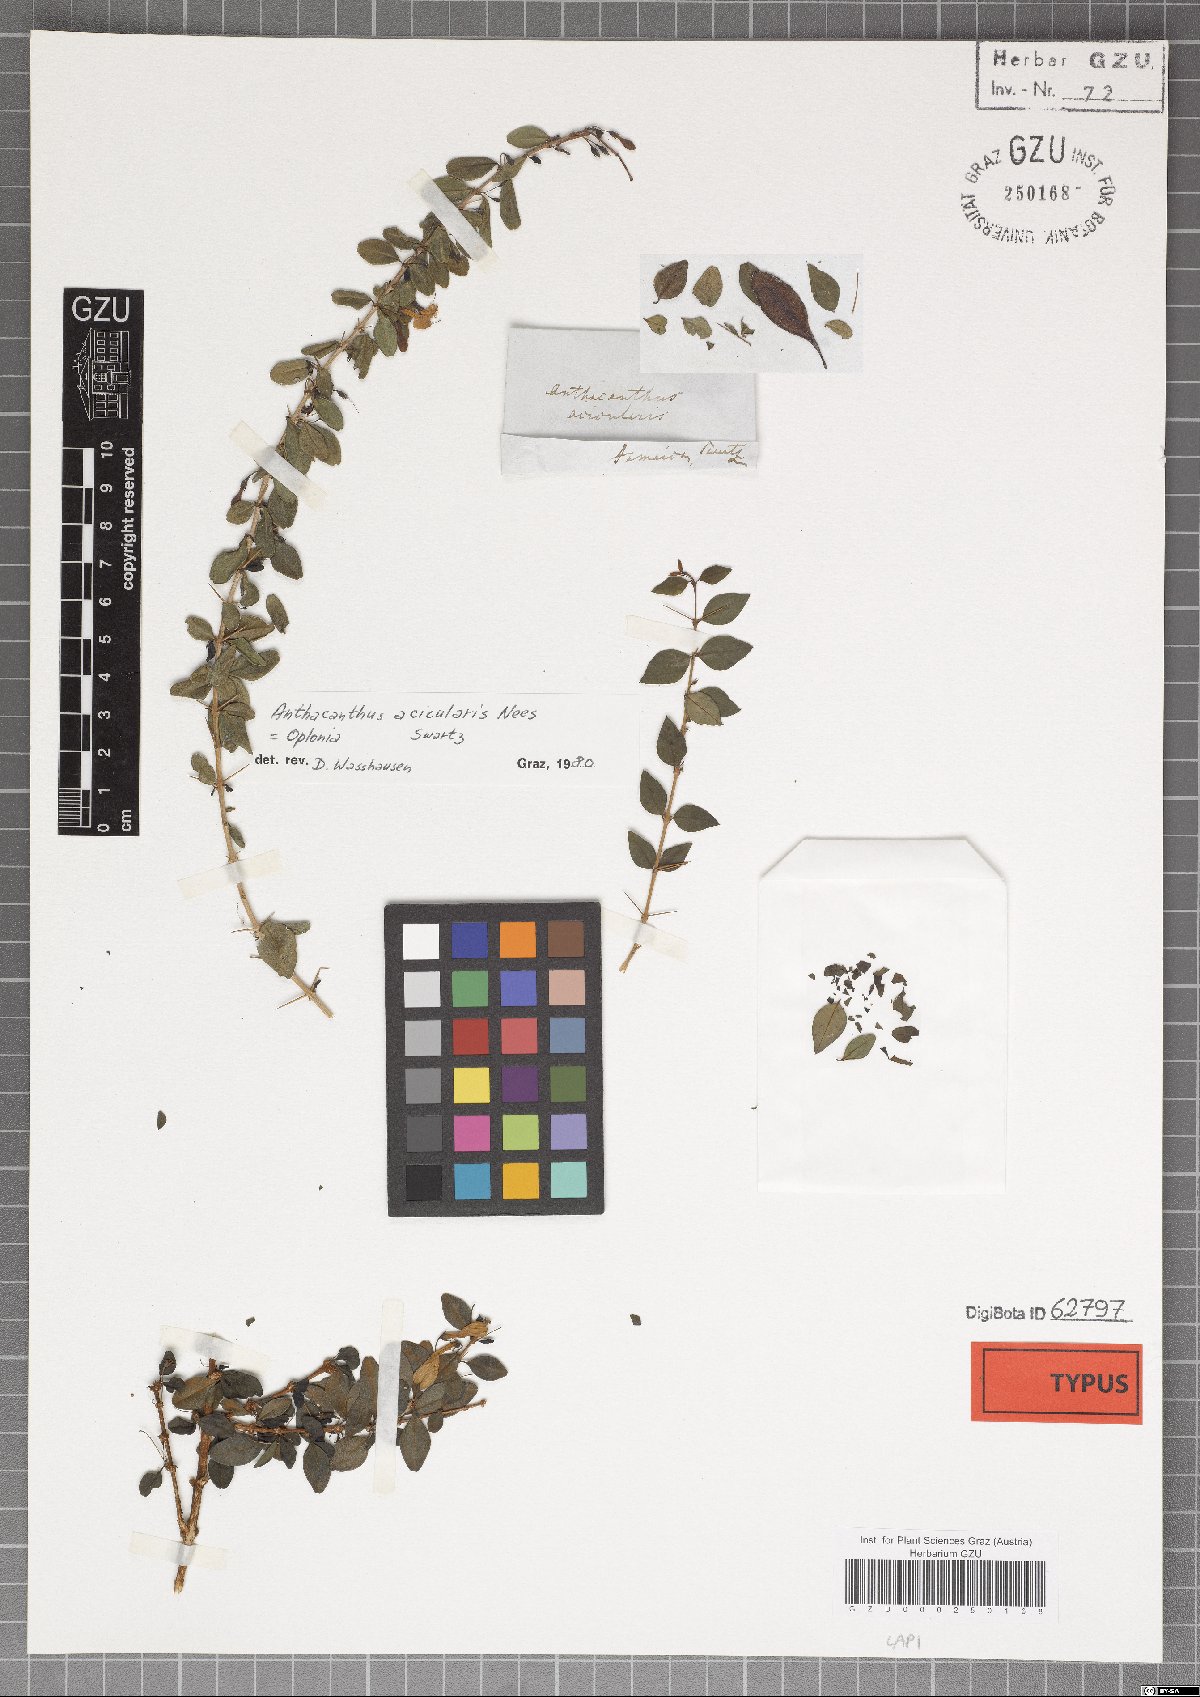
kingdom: Plantae
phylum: Tracheophyta
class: Magnoliopsida
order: Lamiales
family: Acanthaceae
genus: Oplonia
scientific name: Oplonia acicularis
